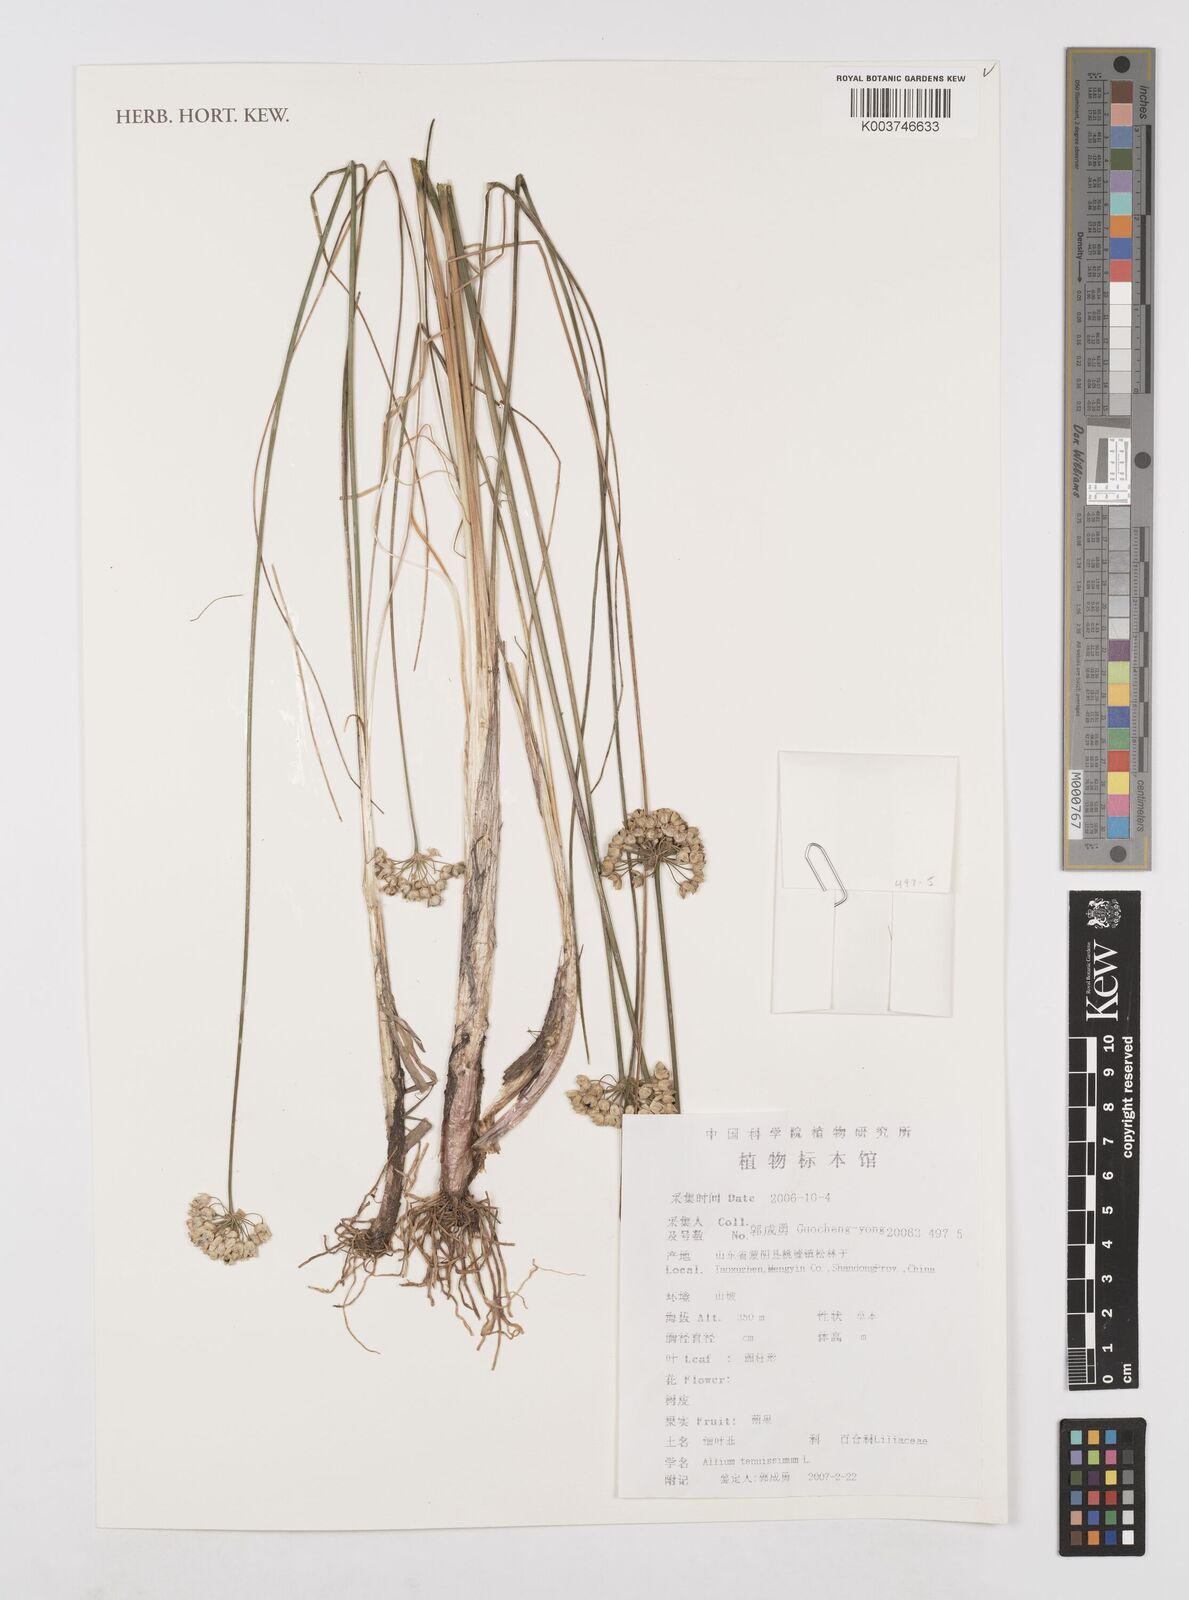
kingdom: Plantae
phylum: Tracheophyta
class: Liliopsida
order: Asparagales
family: Amaryllidaceae
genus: Allium
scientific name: Allium tenuissimum
